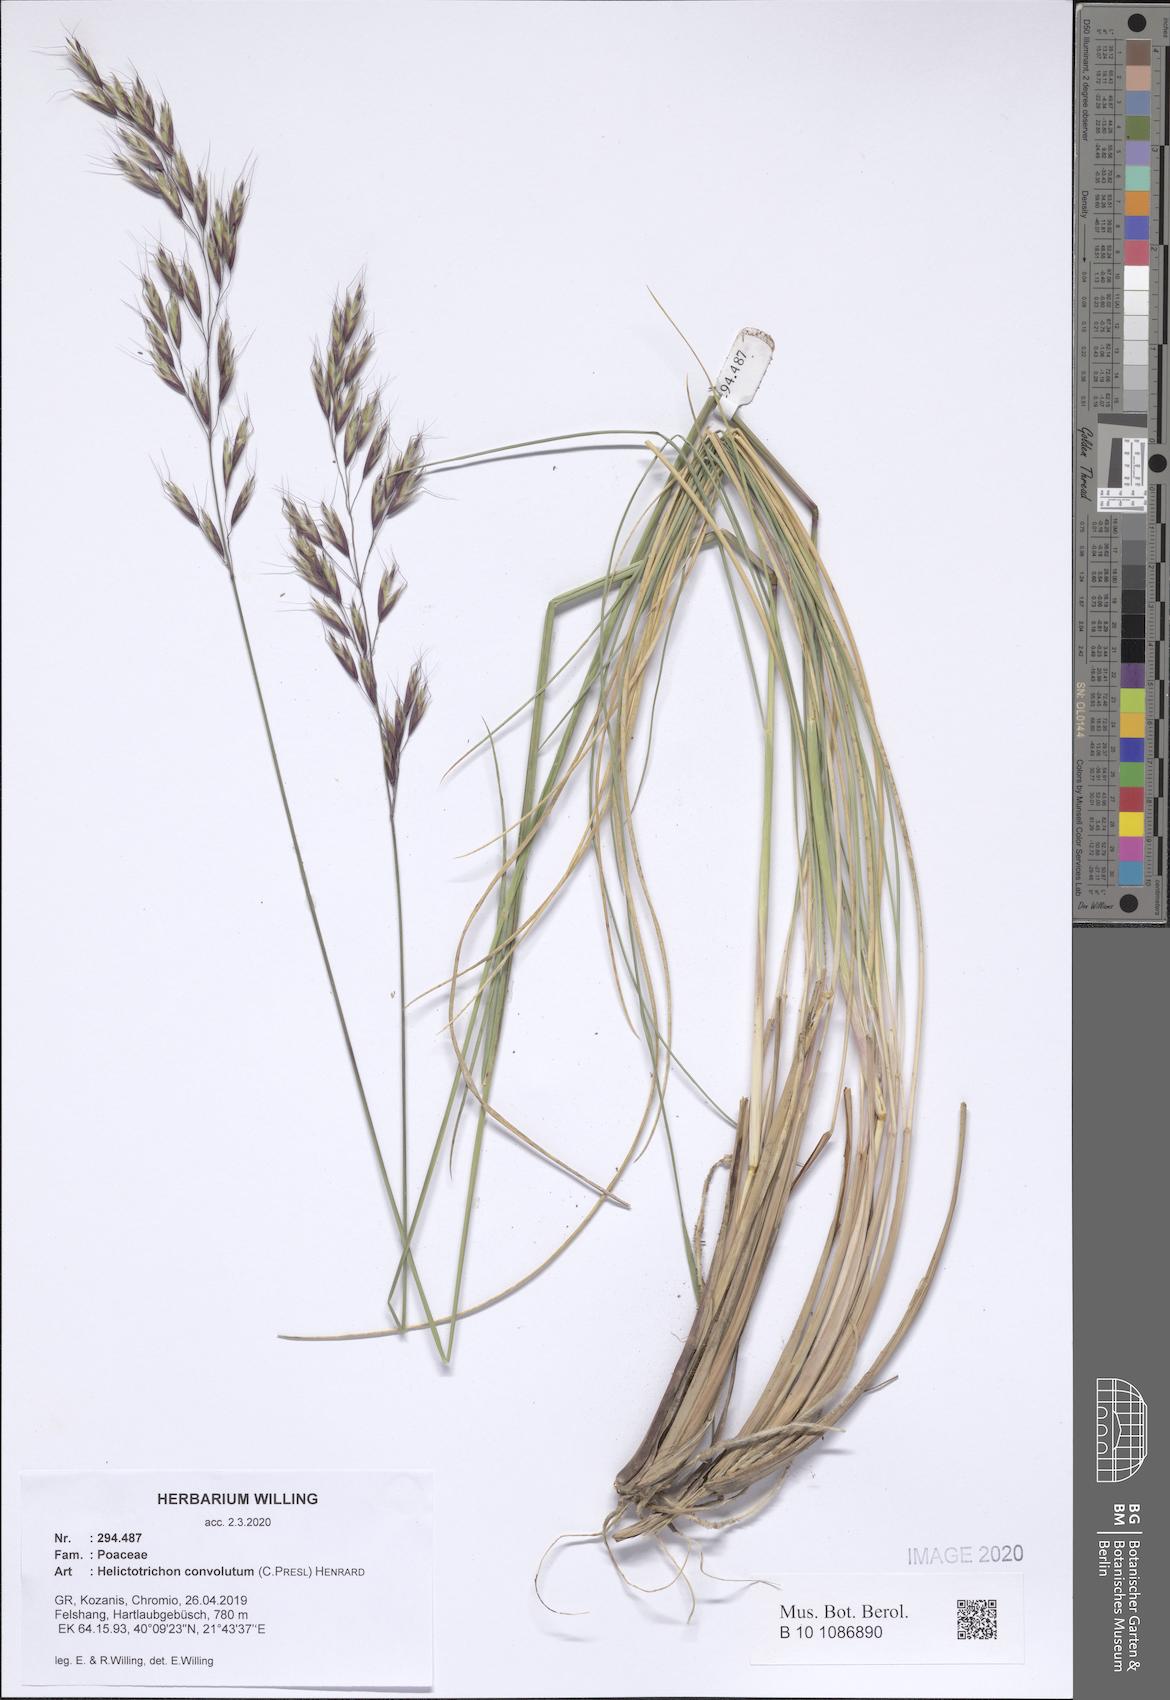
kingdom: Plantae
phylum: Tracheophyta
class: Liliopsida
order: Poales
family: Poaceae
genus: Helictotrichon
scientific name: Helictotrichon convolutum
